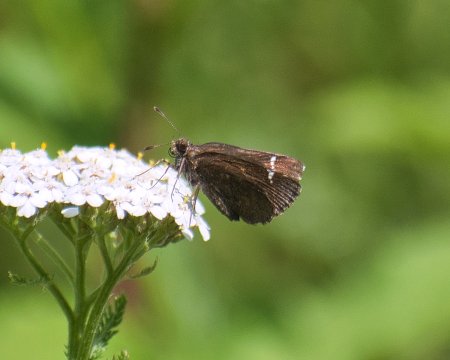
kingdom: Animalia
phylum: Arthropoda
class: Insecta
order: Lepidoptera
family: Hesperiidae
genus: Mastor
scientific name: Mastor vialis
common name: Common Roadside-Skipper
